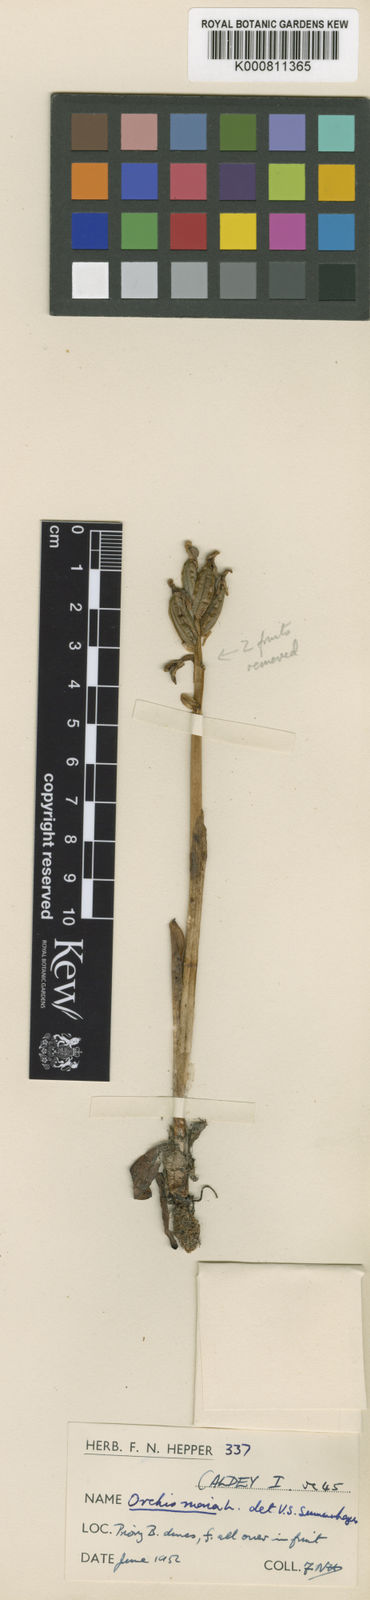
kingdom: Plantae
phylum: Tracheophyta
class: Liliopsida
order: Asparagales
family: Orchidaceae
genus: Anacamptis
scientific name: Anacamptis morio
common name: Green-winged orchid
